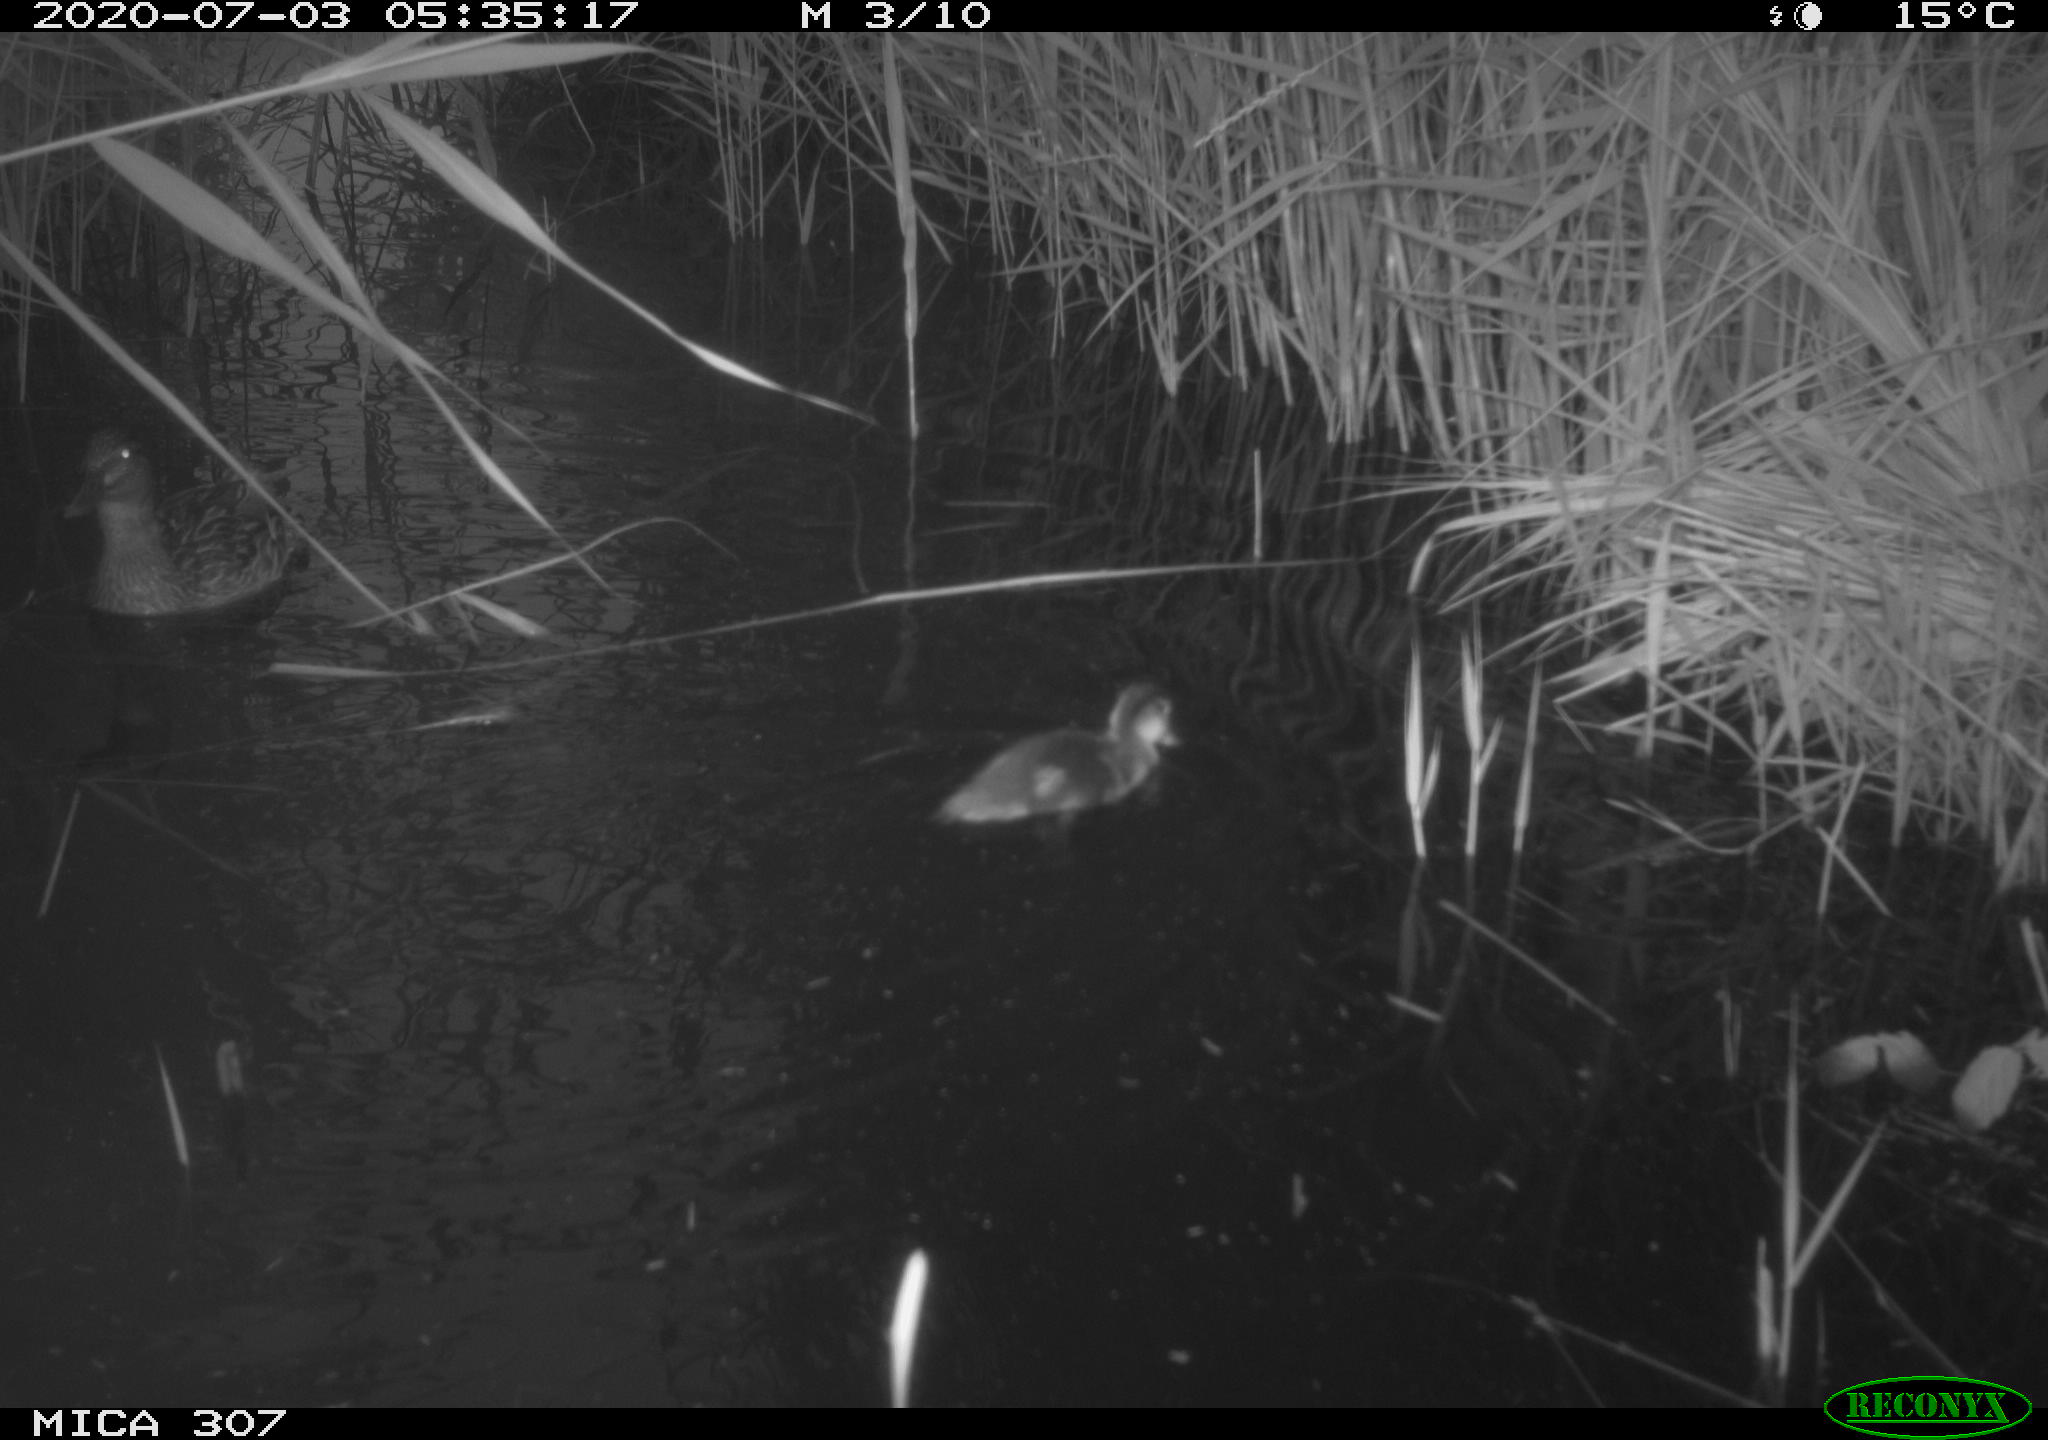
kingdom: Animalia
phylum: Chordata
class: Aves
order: Anseriformes
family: Anatidae
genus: Anas
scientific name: Anas platyrhynchos
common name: Mallard
